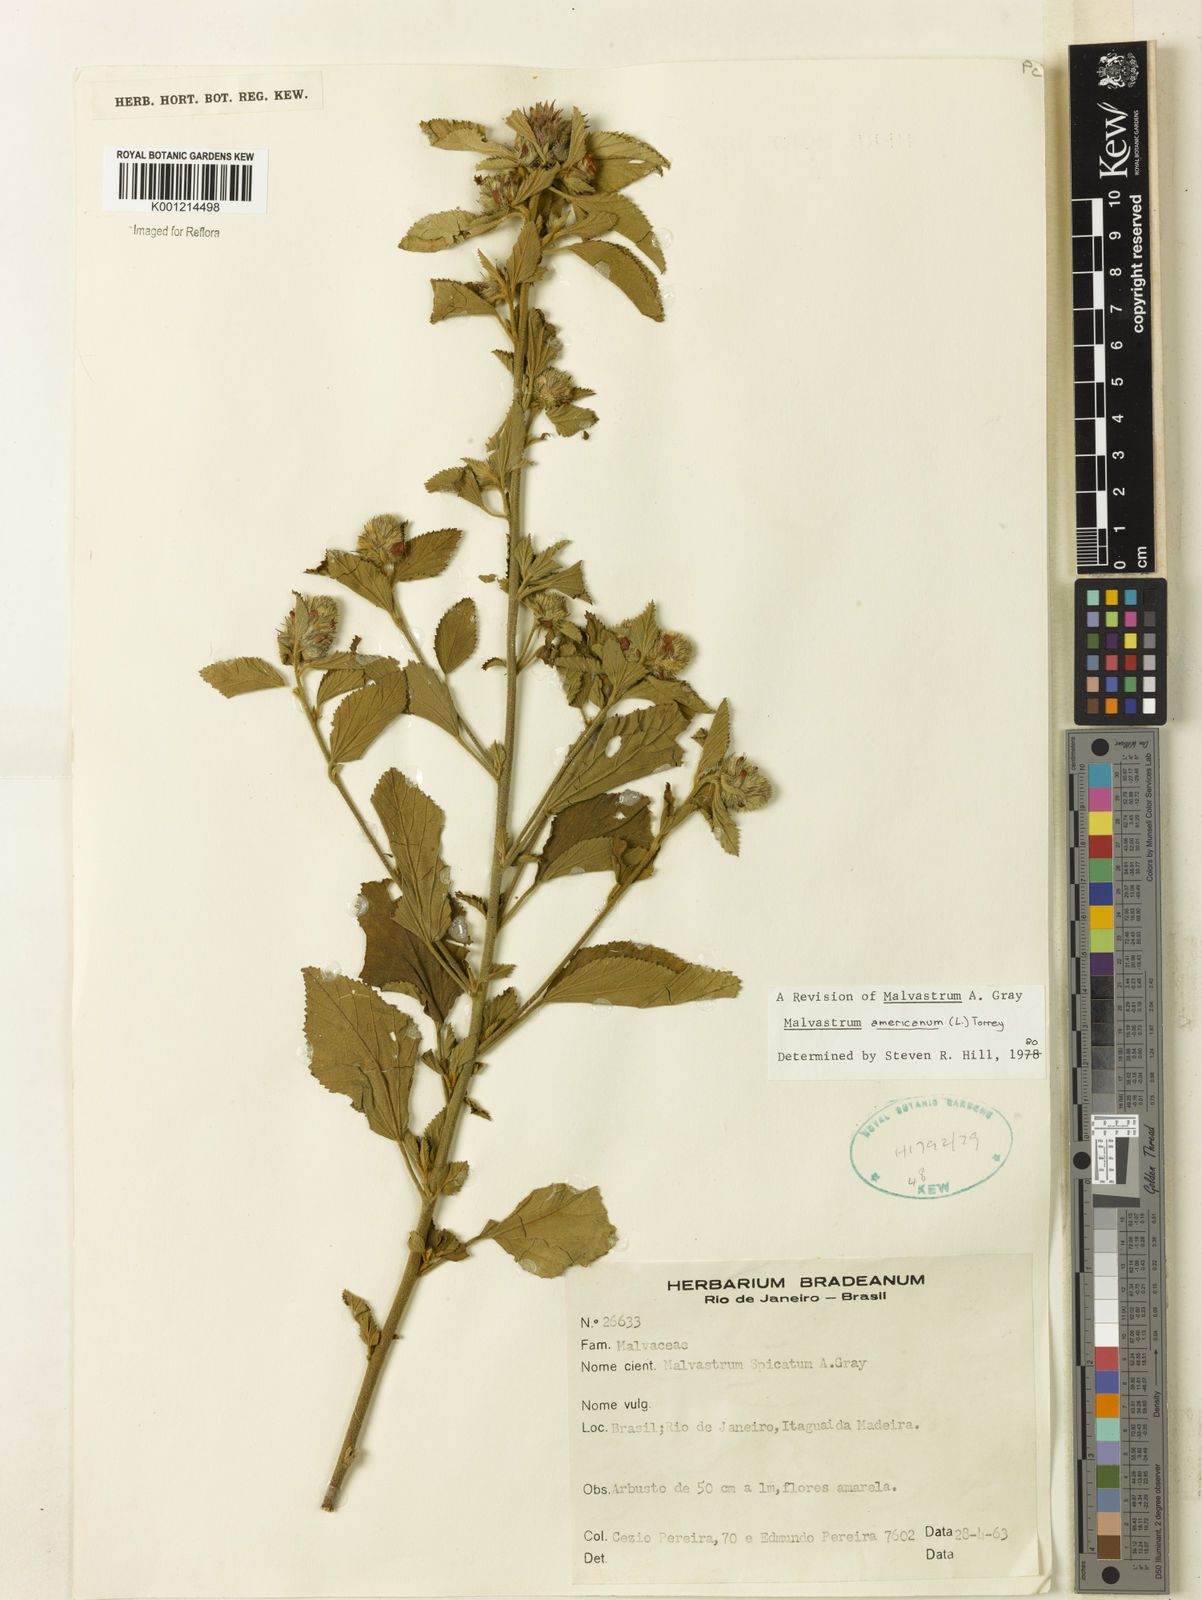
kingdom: Plantae
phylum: Tracheophyta
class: Magnoliopsida
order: Malvales
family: Malvaceae
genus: Malvastrum
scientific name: Malvastrum americanum
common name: Spiked malvastrum
